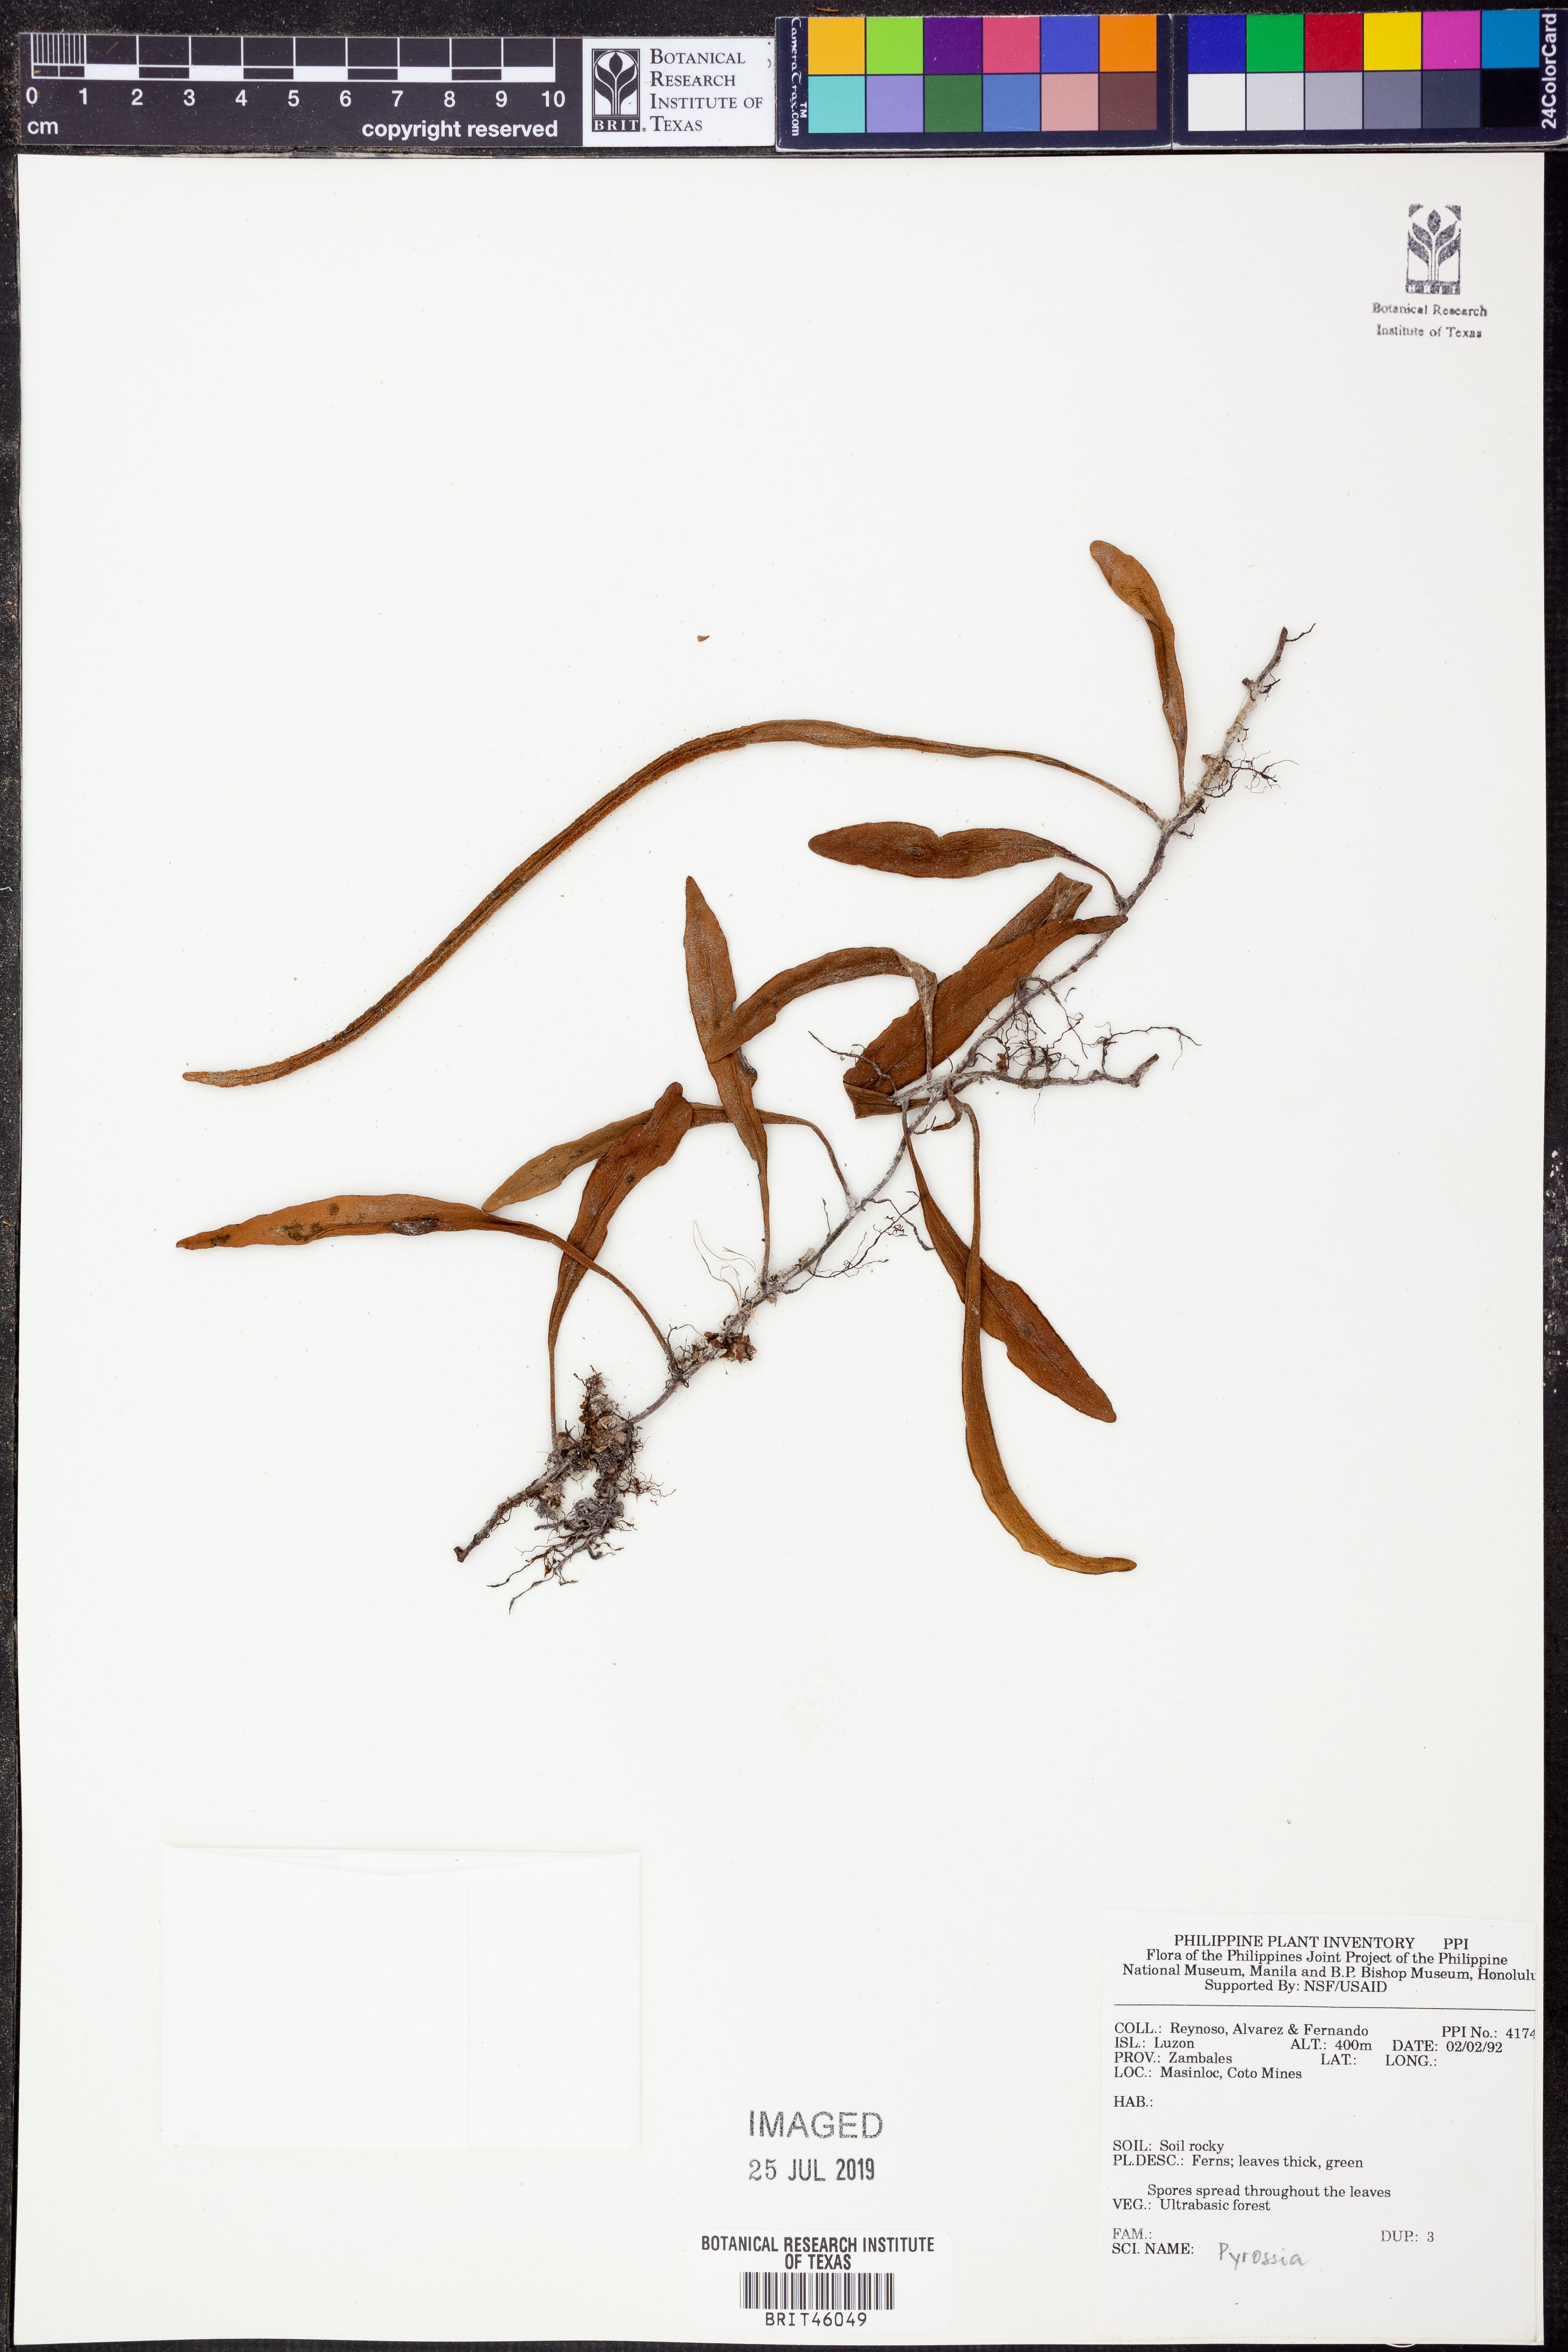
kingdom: Plantae
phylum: Tracheophyta
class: Polypodiopsida
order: Polypodiales
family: Polypodiaceae
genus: Pyrrosia
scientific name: Pyrrosia
